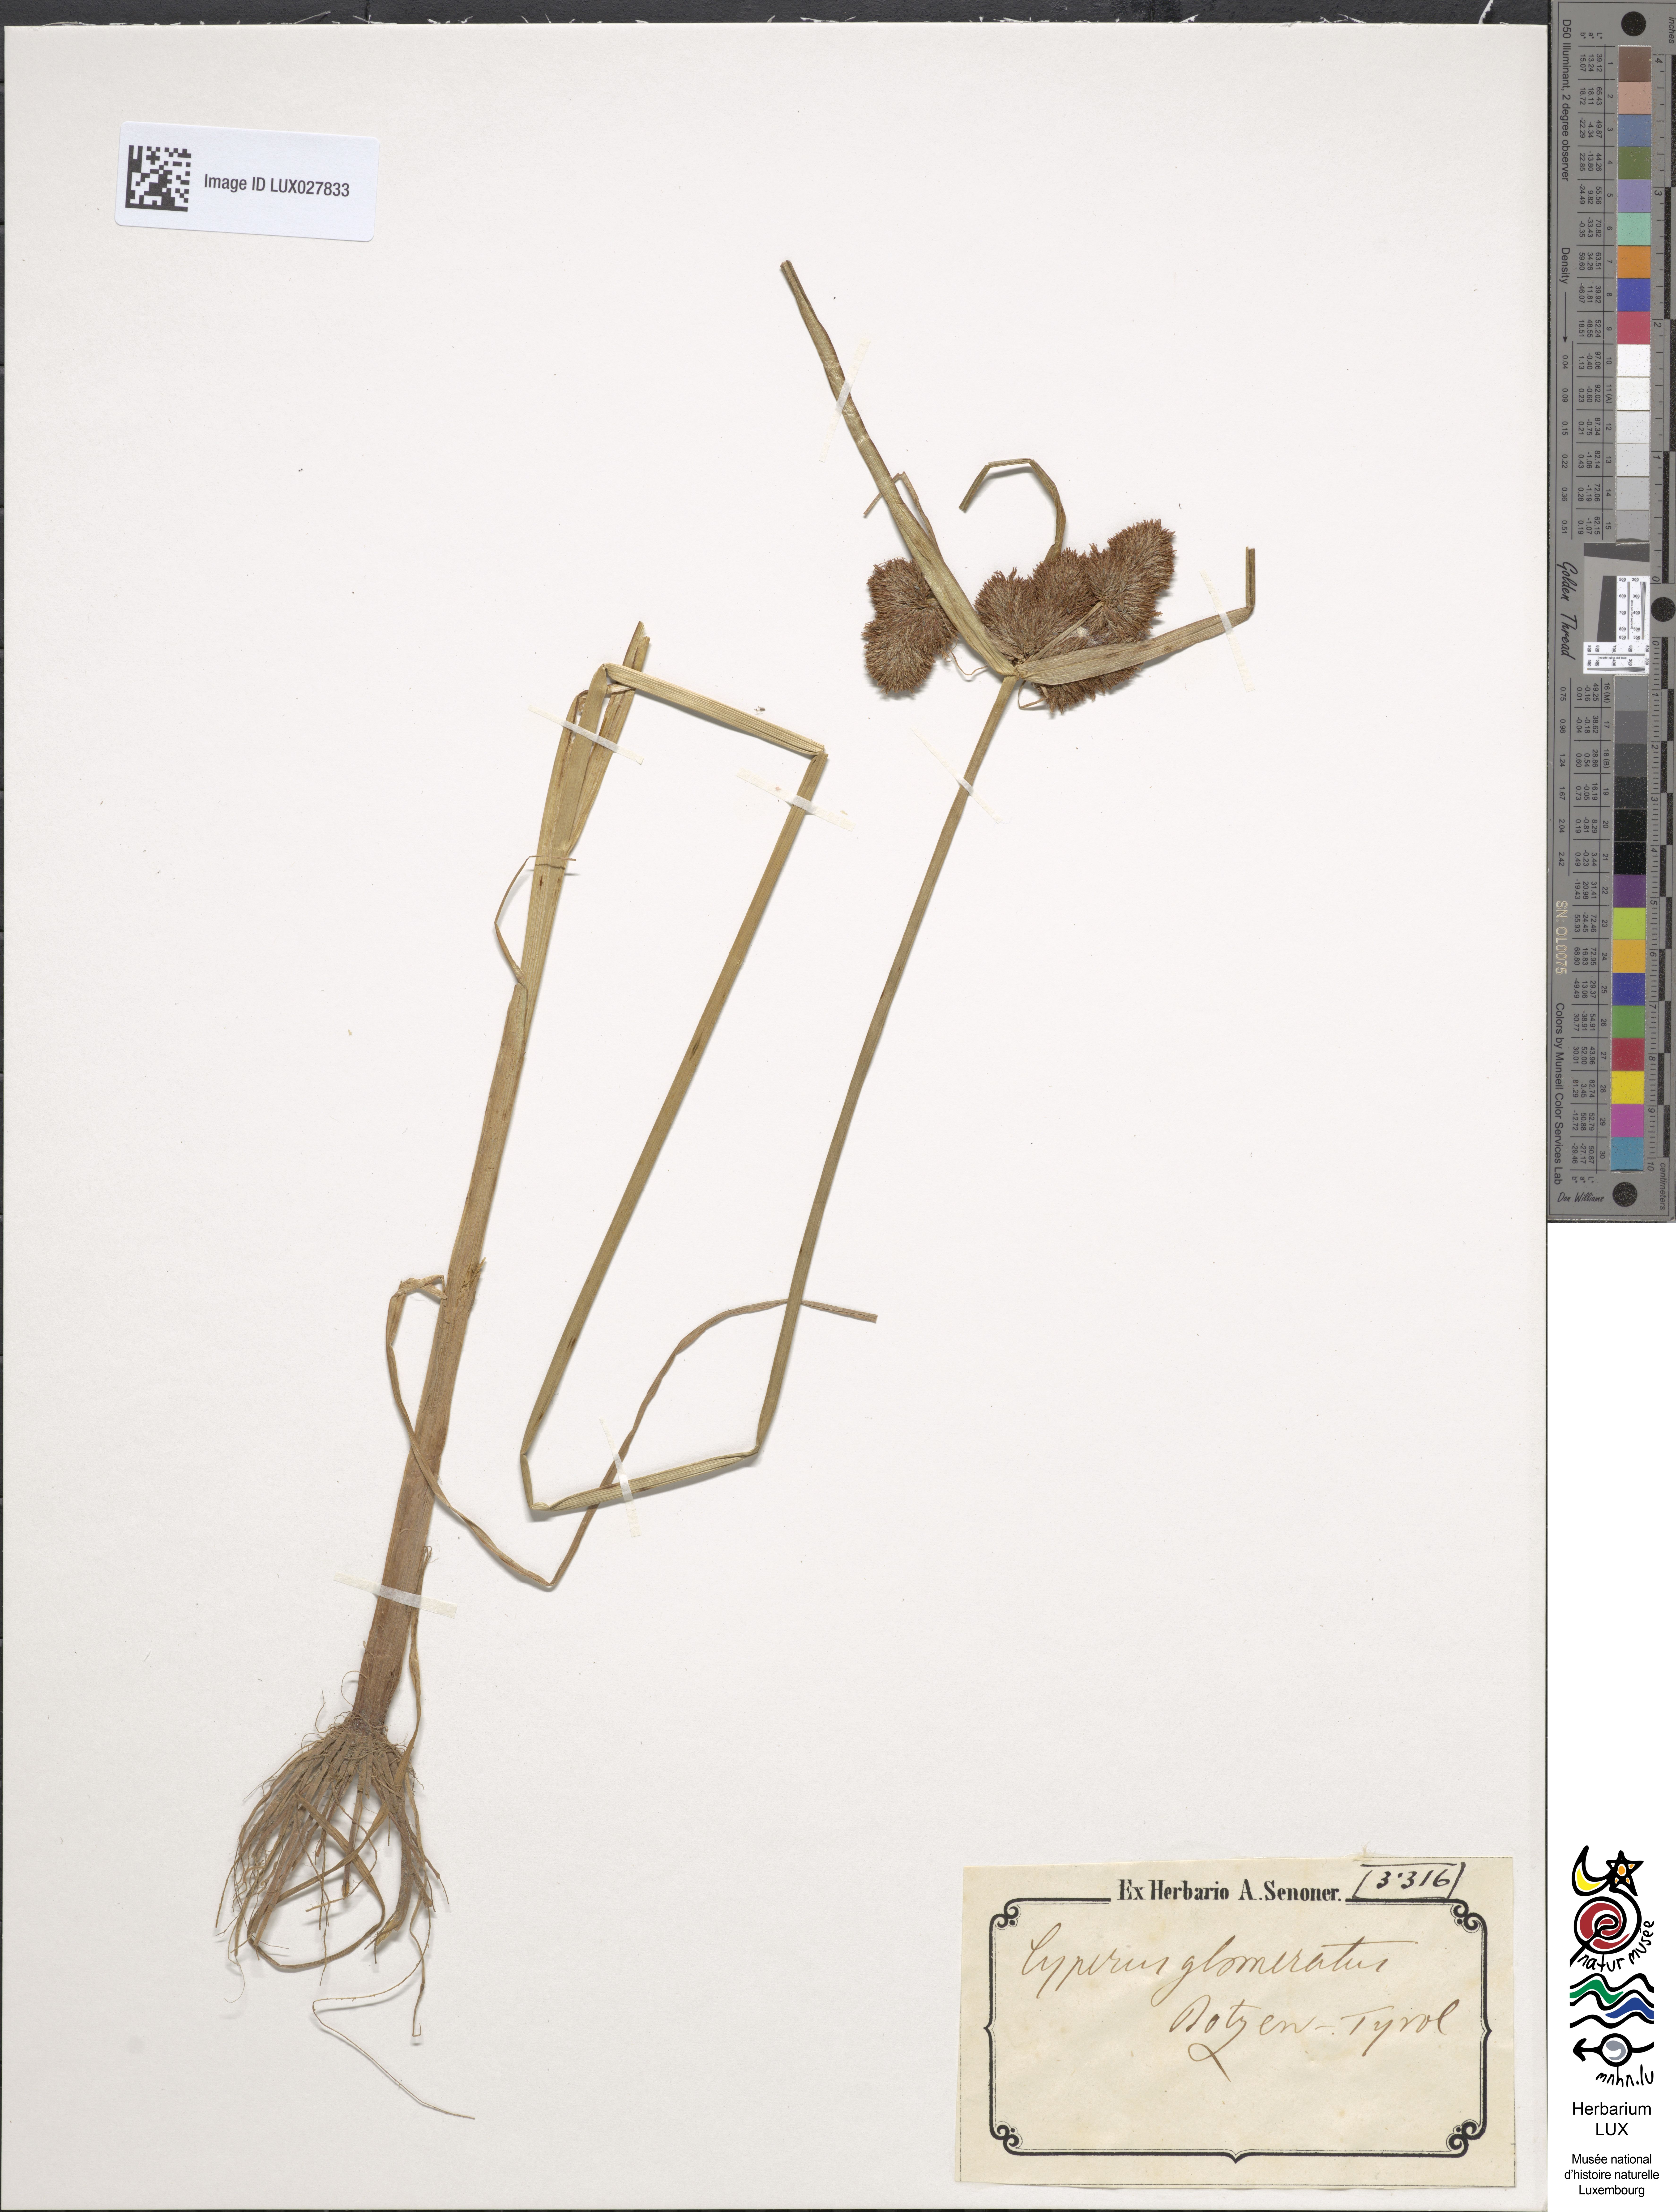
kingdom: Plantae
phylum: Tracheophyta
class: Liliopsida
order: Poales
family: Cyperaceae
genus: Cyperus
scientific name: Cyperus glomeratus
